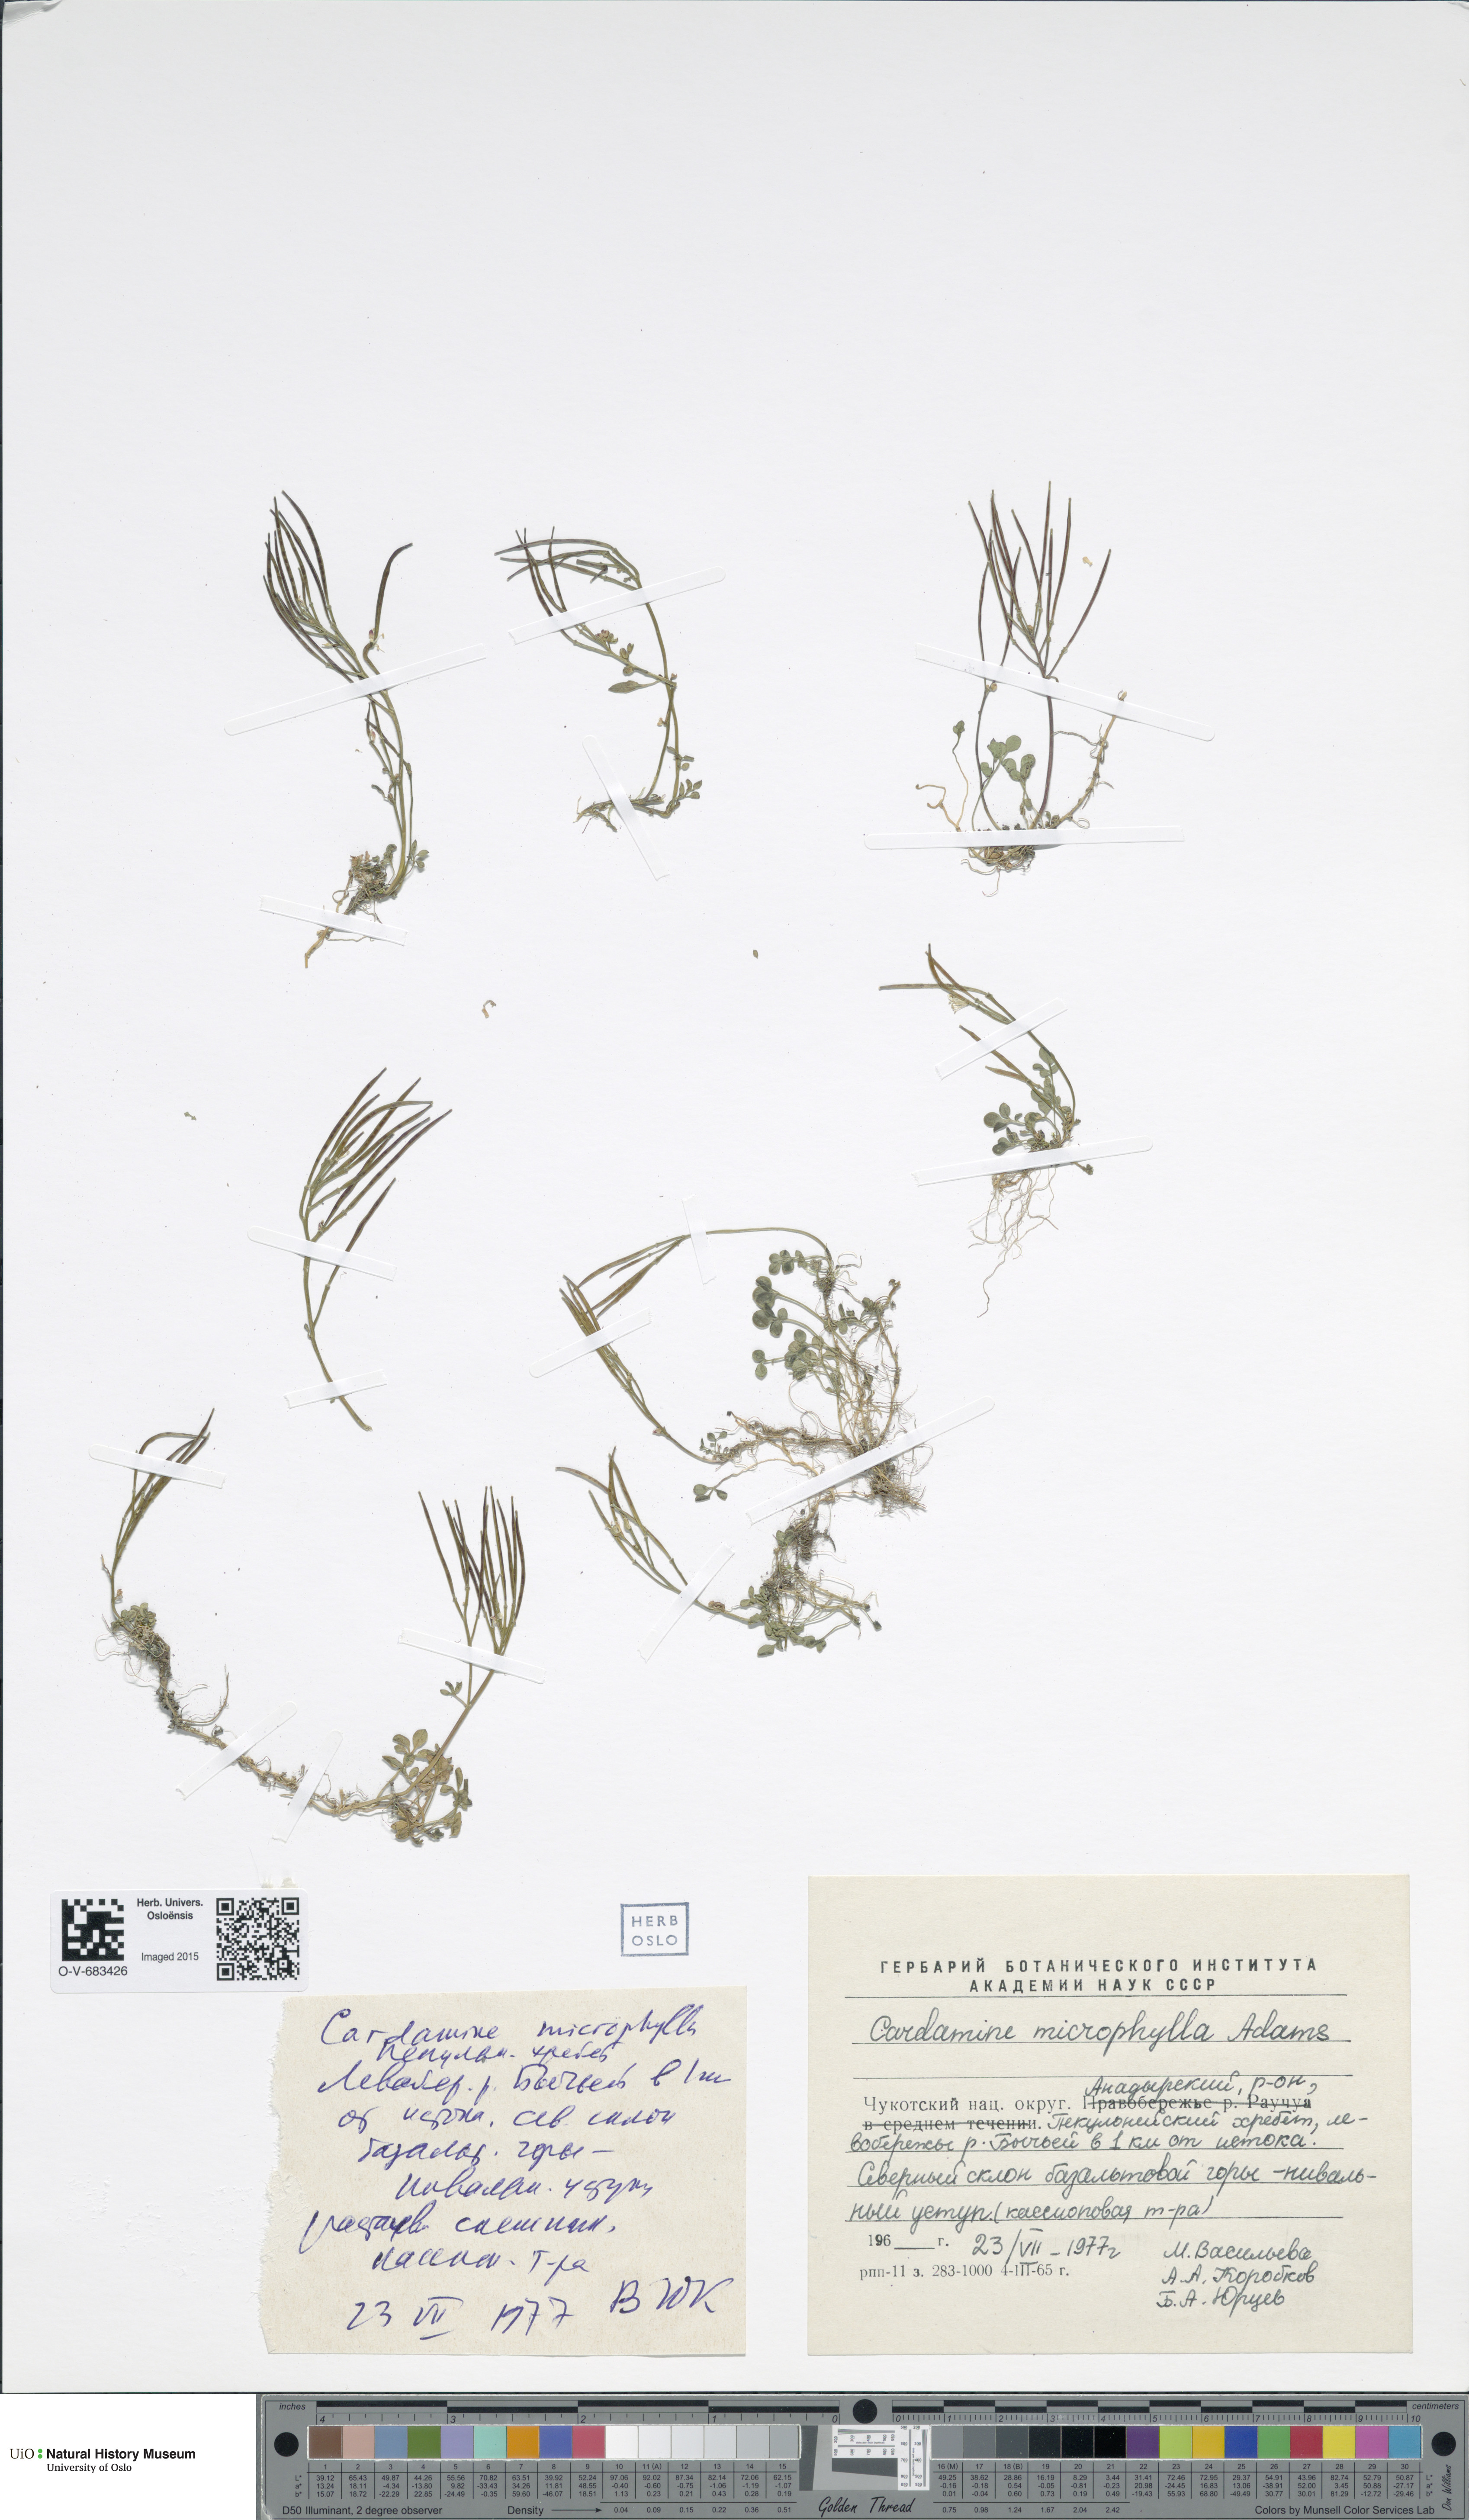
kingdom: Plantae
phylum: Tracheophyta
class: Magnoliopsida
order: Brassicales
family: Brassicaceae
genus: Cardamine
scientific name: Cardamine microphylla
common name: Little-leaved bittercress
